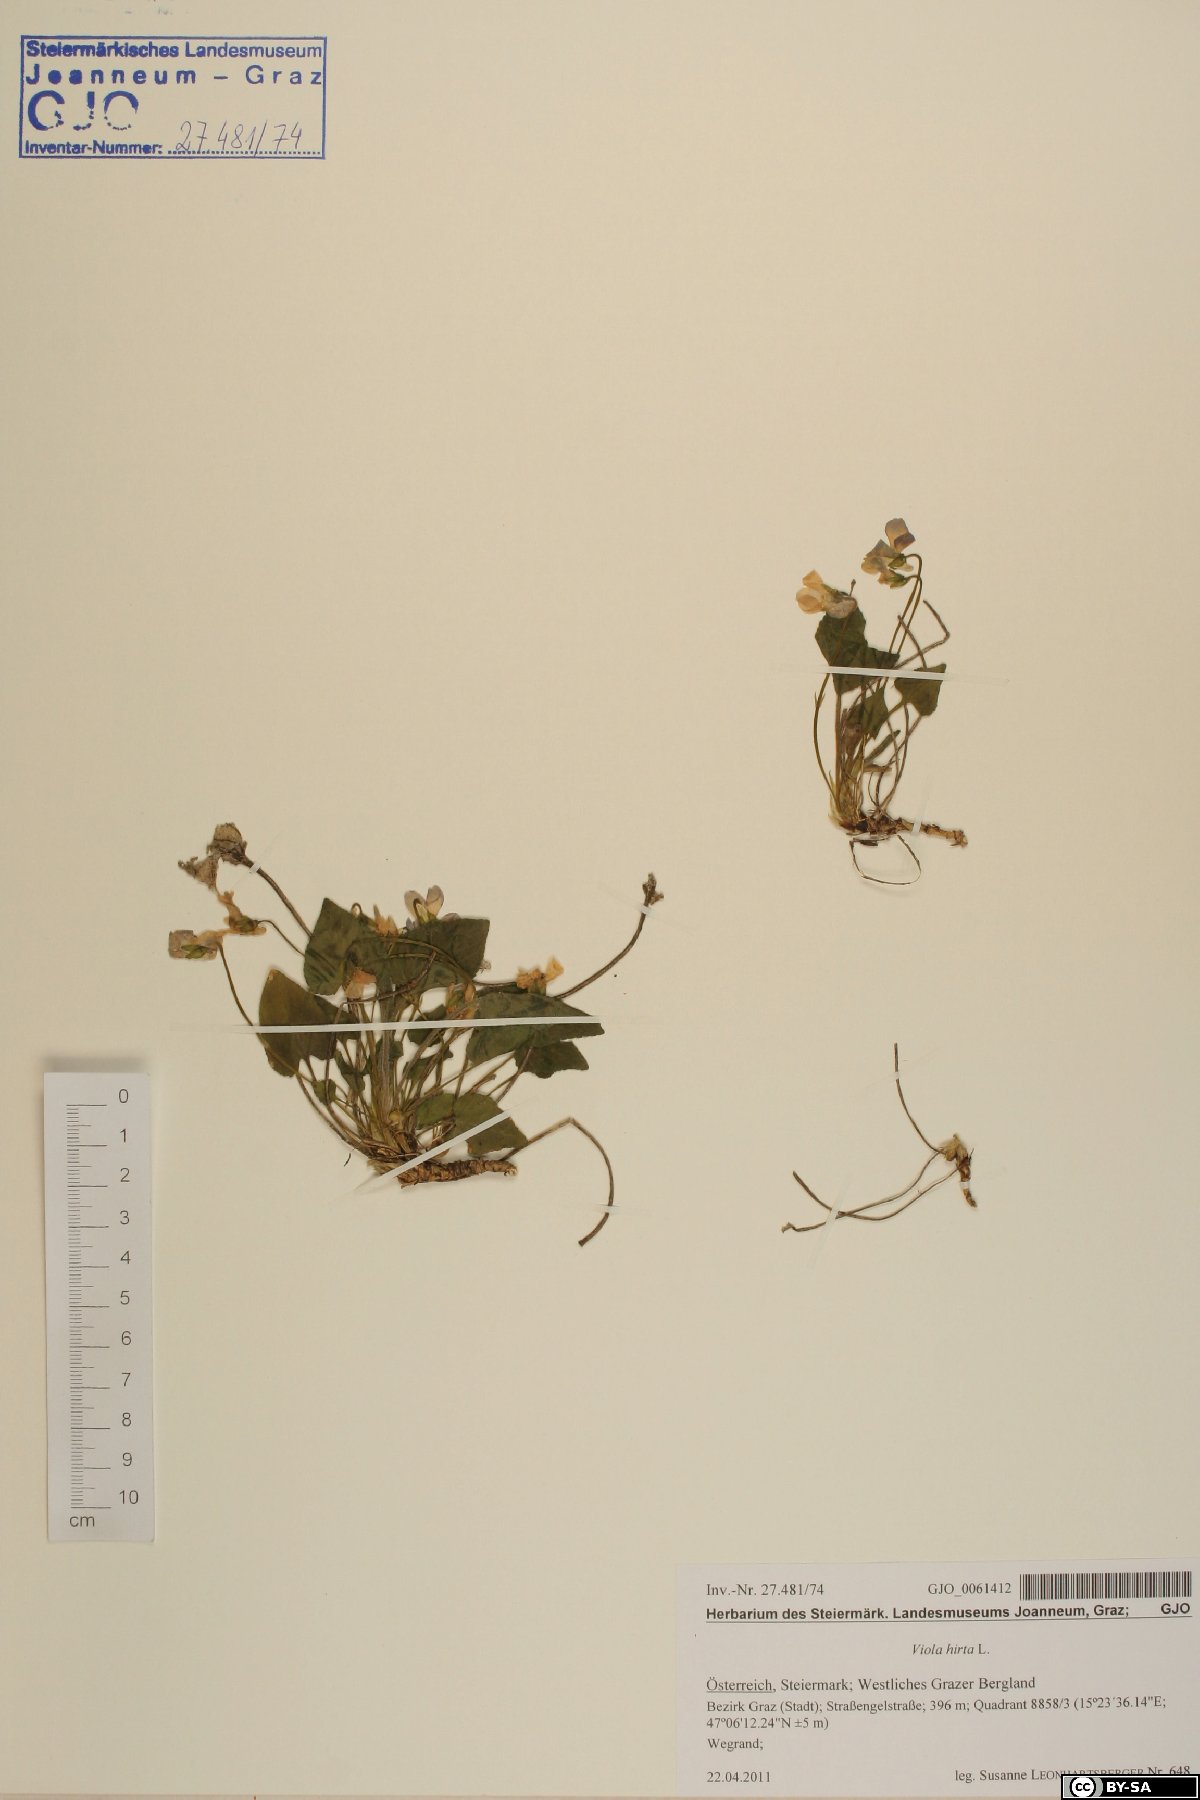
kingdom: Plantae
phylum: Tracheophyta
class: Magnoliopsida
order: Malpighiales
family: Violaceae
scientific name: Violaceae
